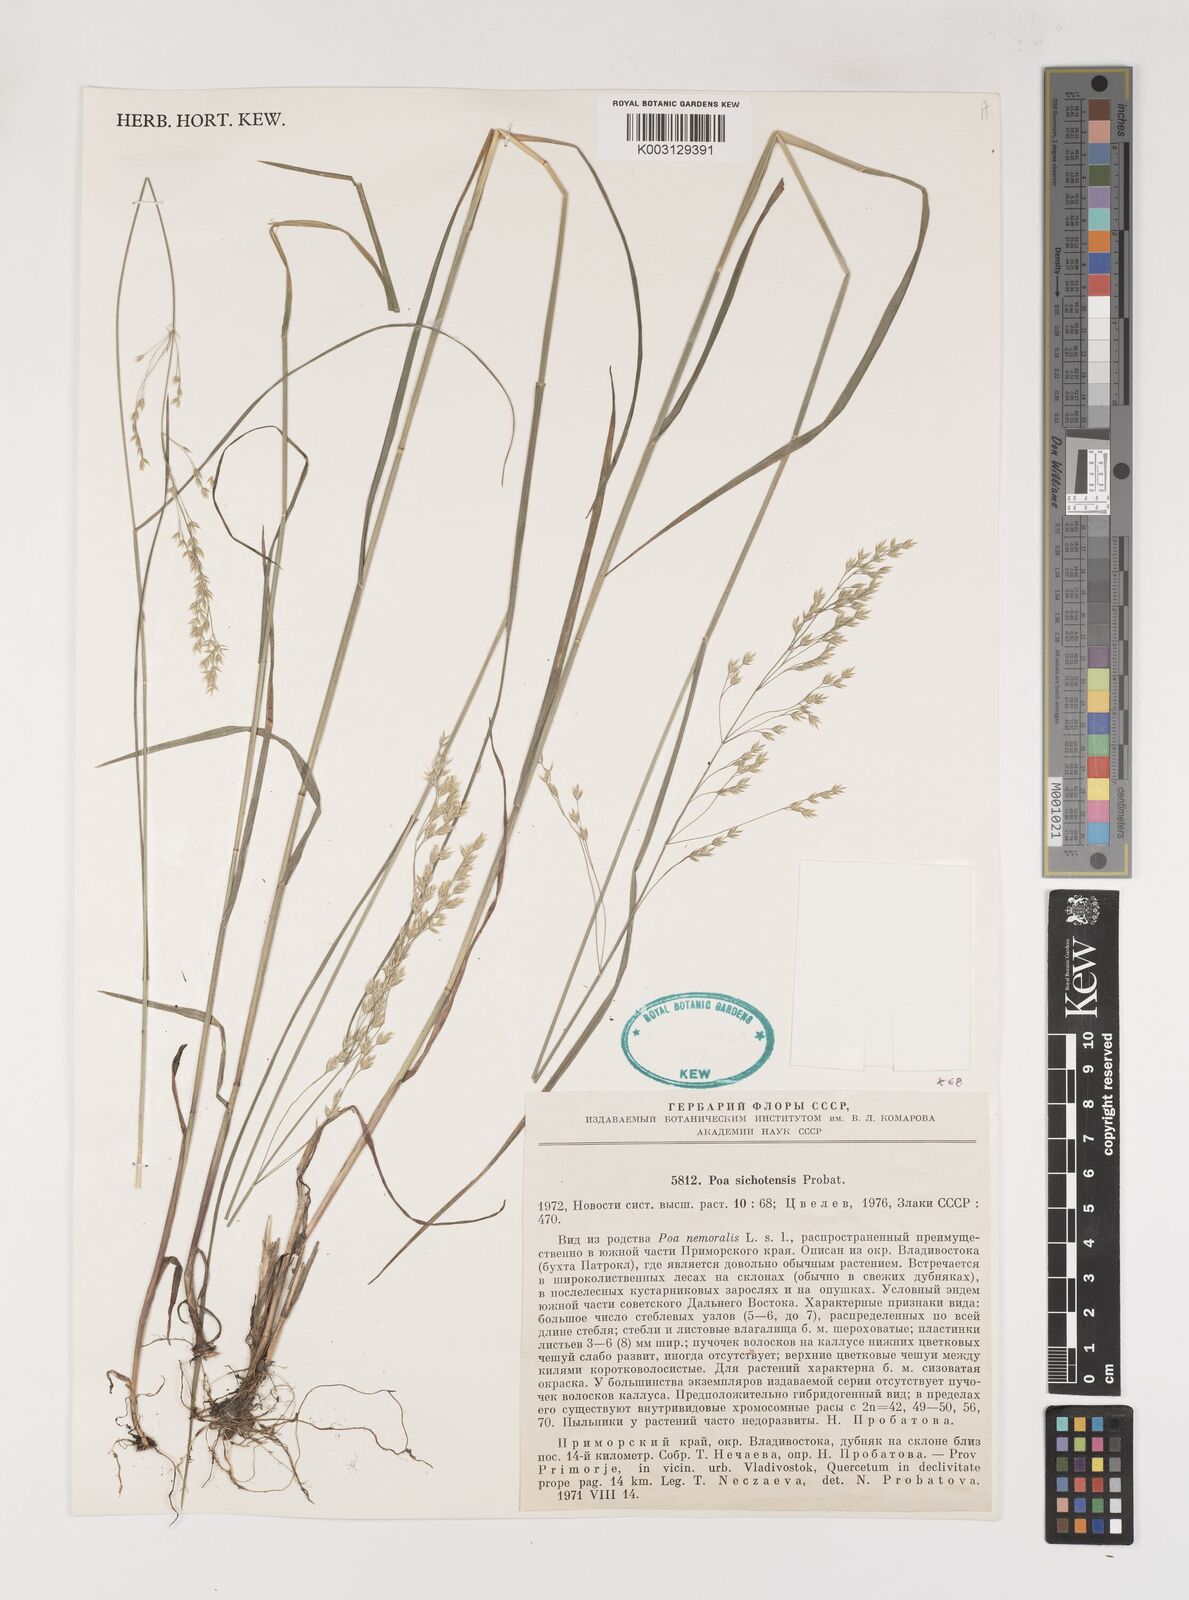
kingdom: Plantae
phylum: Tracheophyta
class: Liliopsida
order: Poales
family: Poaceae
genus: Poa
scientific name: Poa sichotensis
